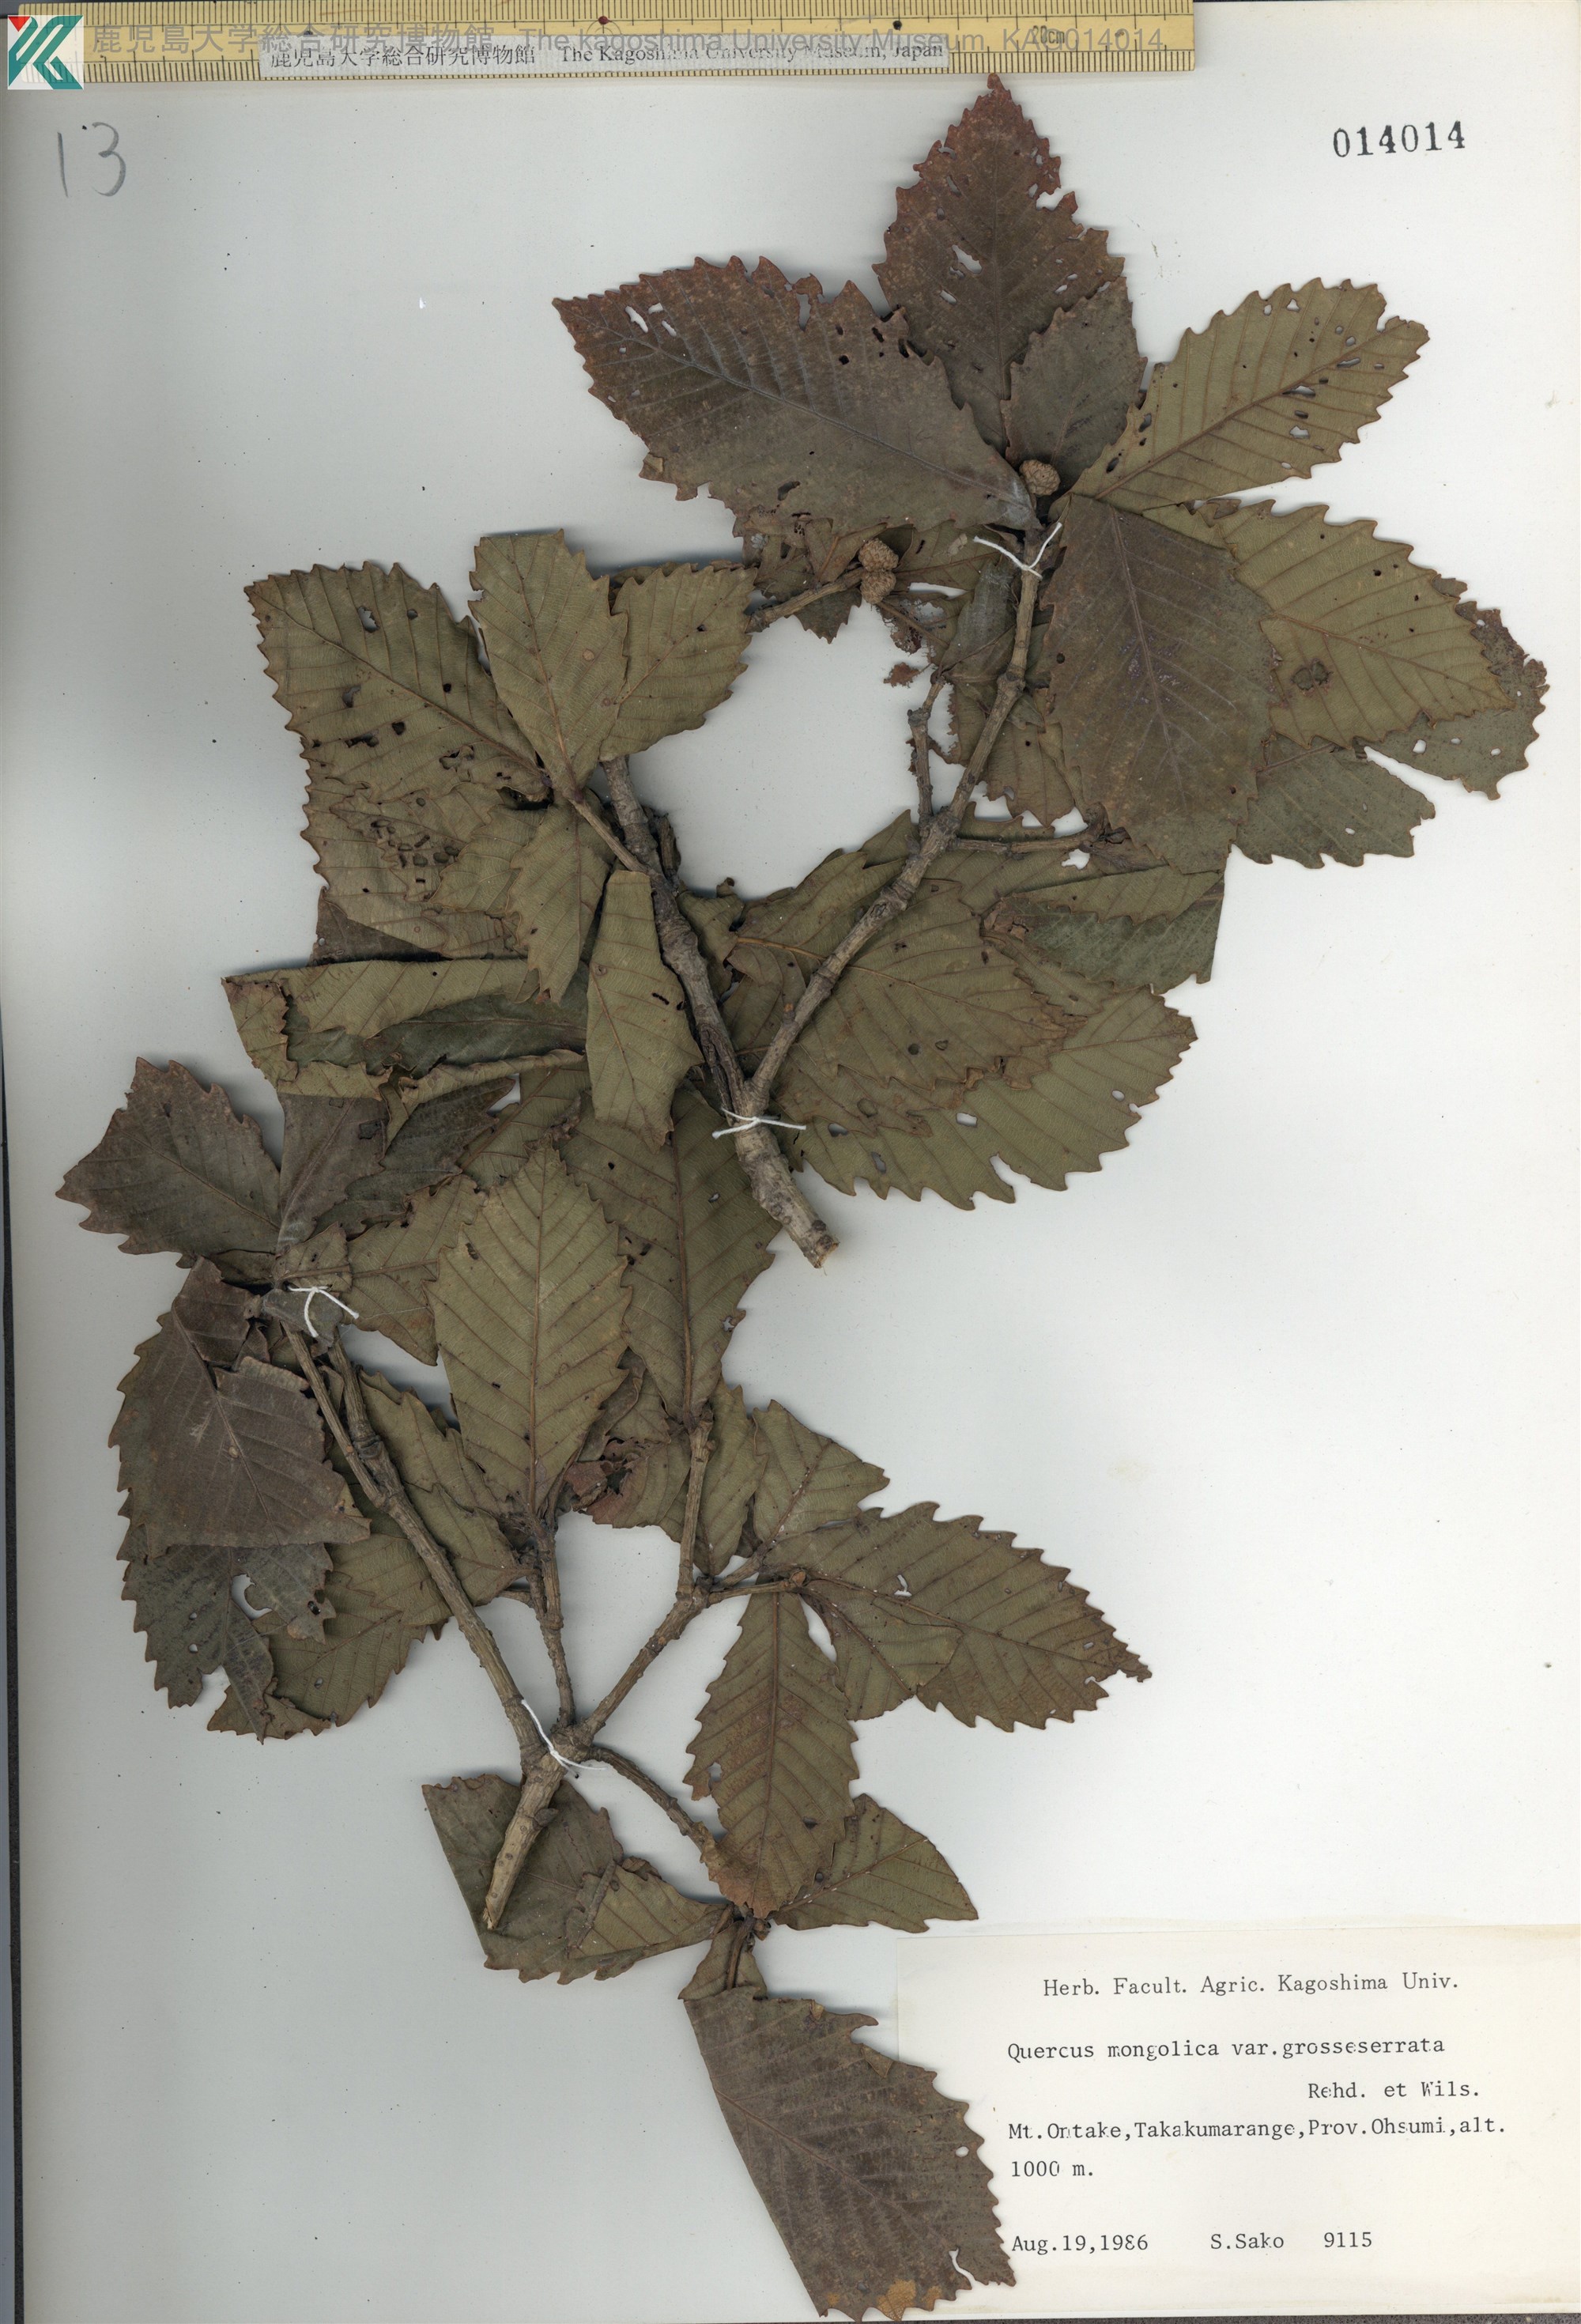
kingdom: Plantae
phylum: Tracheophyta
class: Magnoliopsida
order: Fagales
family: Fagaceae
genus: Quercus
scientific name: Quercus crispula
